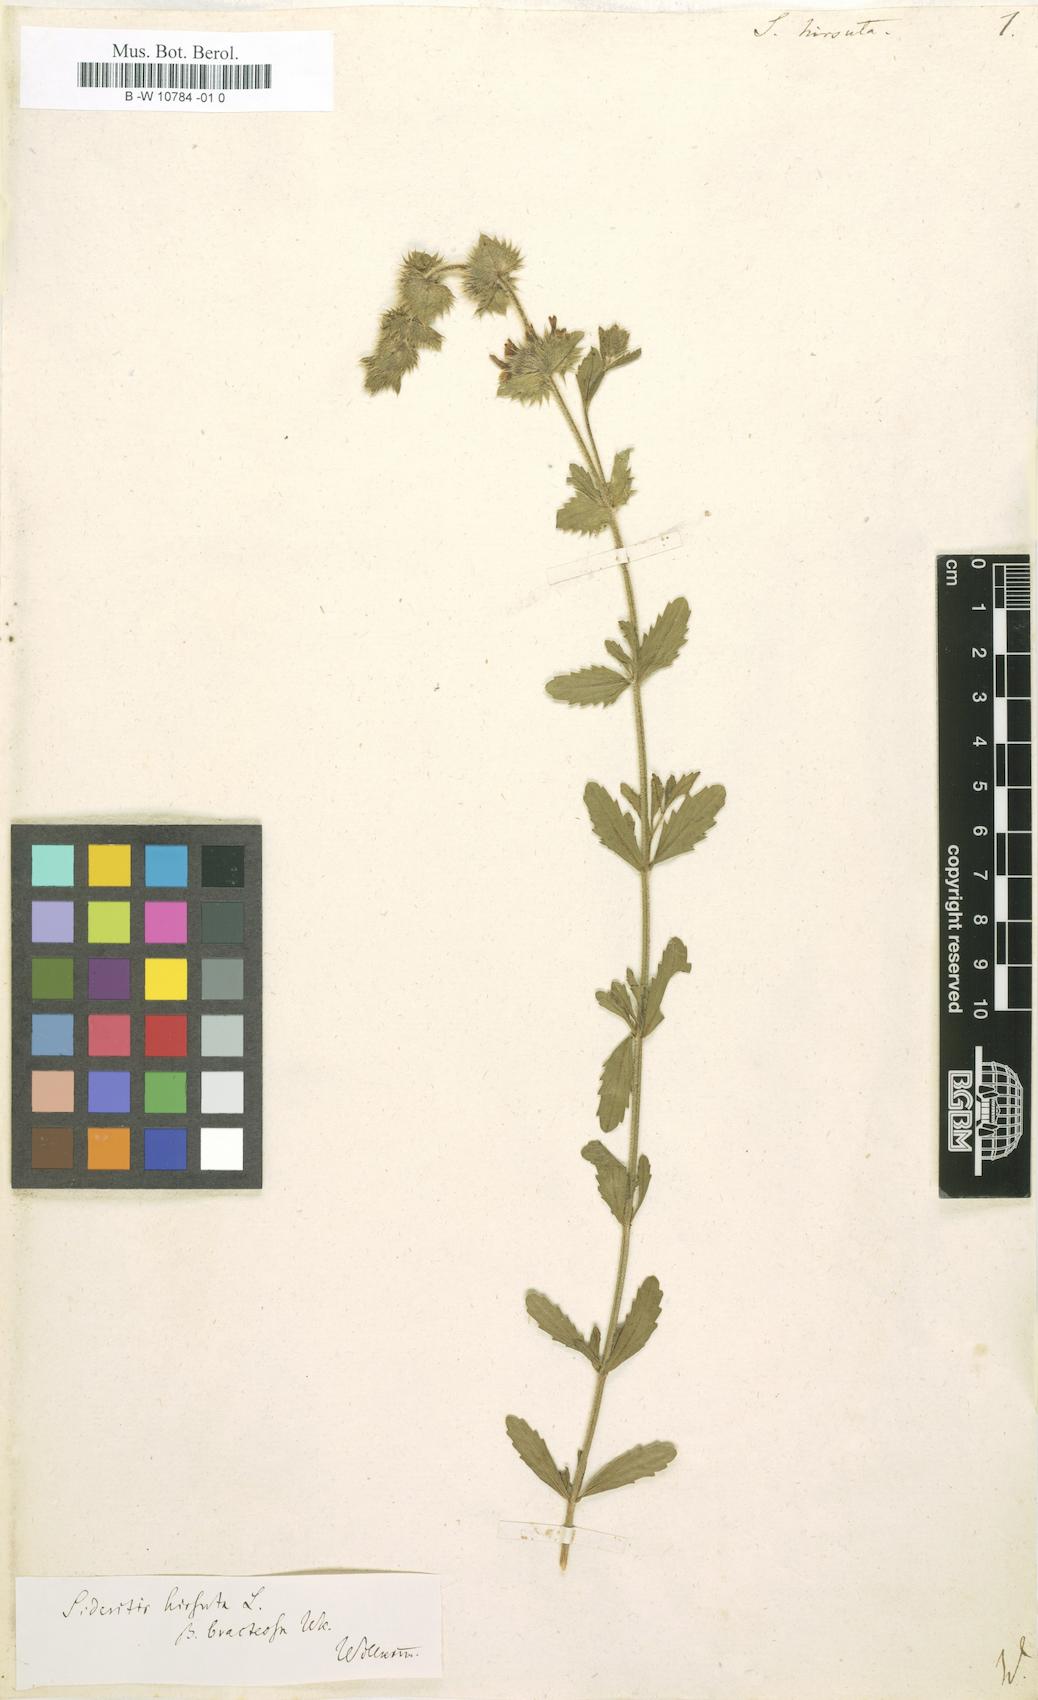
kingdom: Plantae
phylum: Tracheophyta
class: Magnoliopsida
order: Lamiales
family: Lamiaceae
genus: Sideritis
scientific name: Sideritis hirsuta
